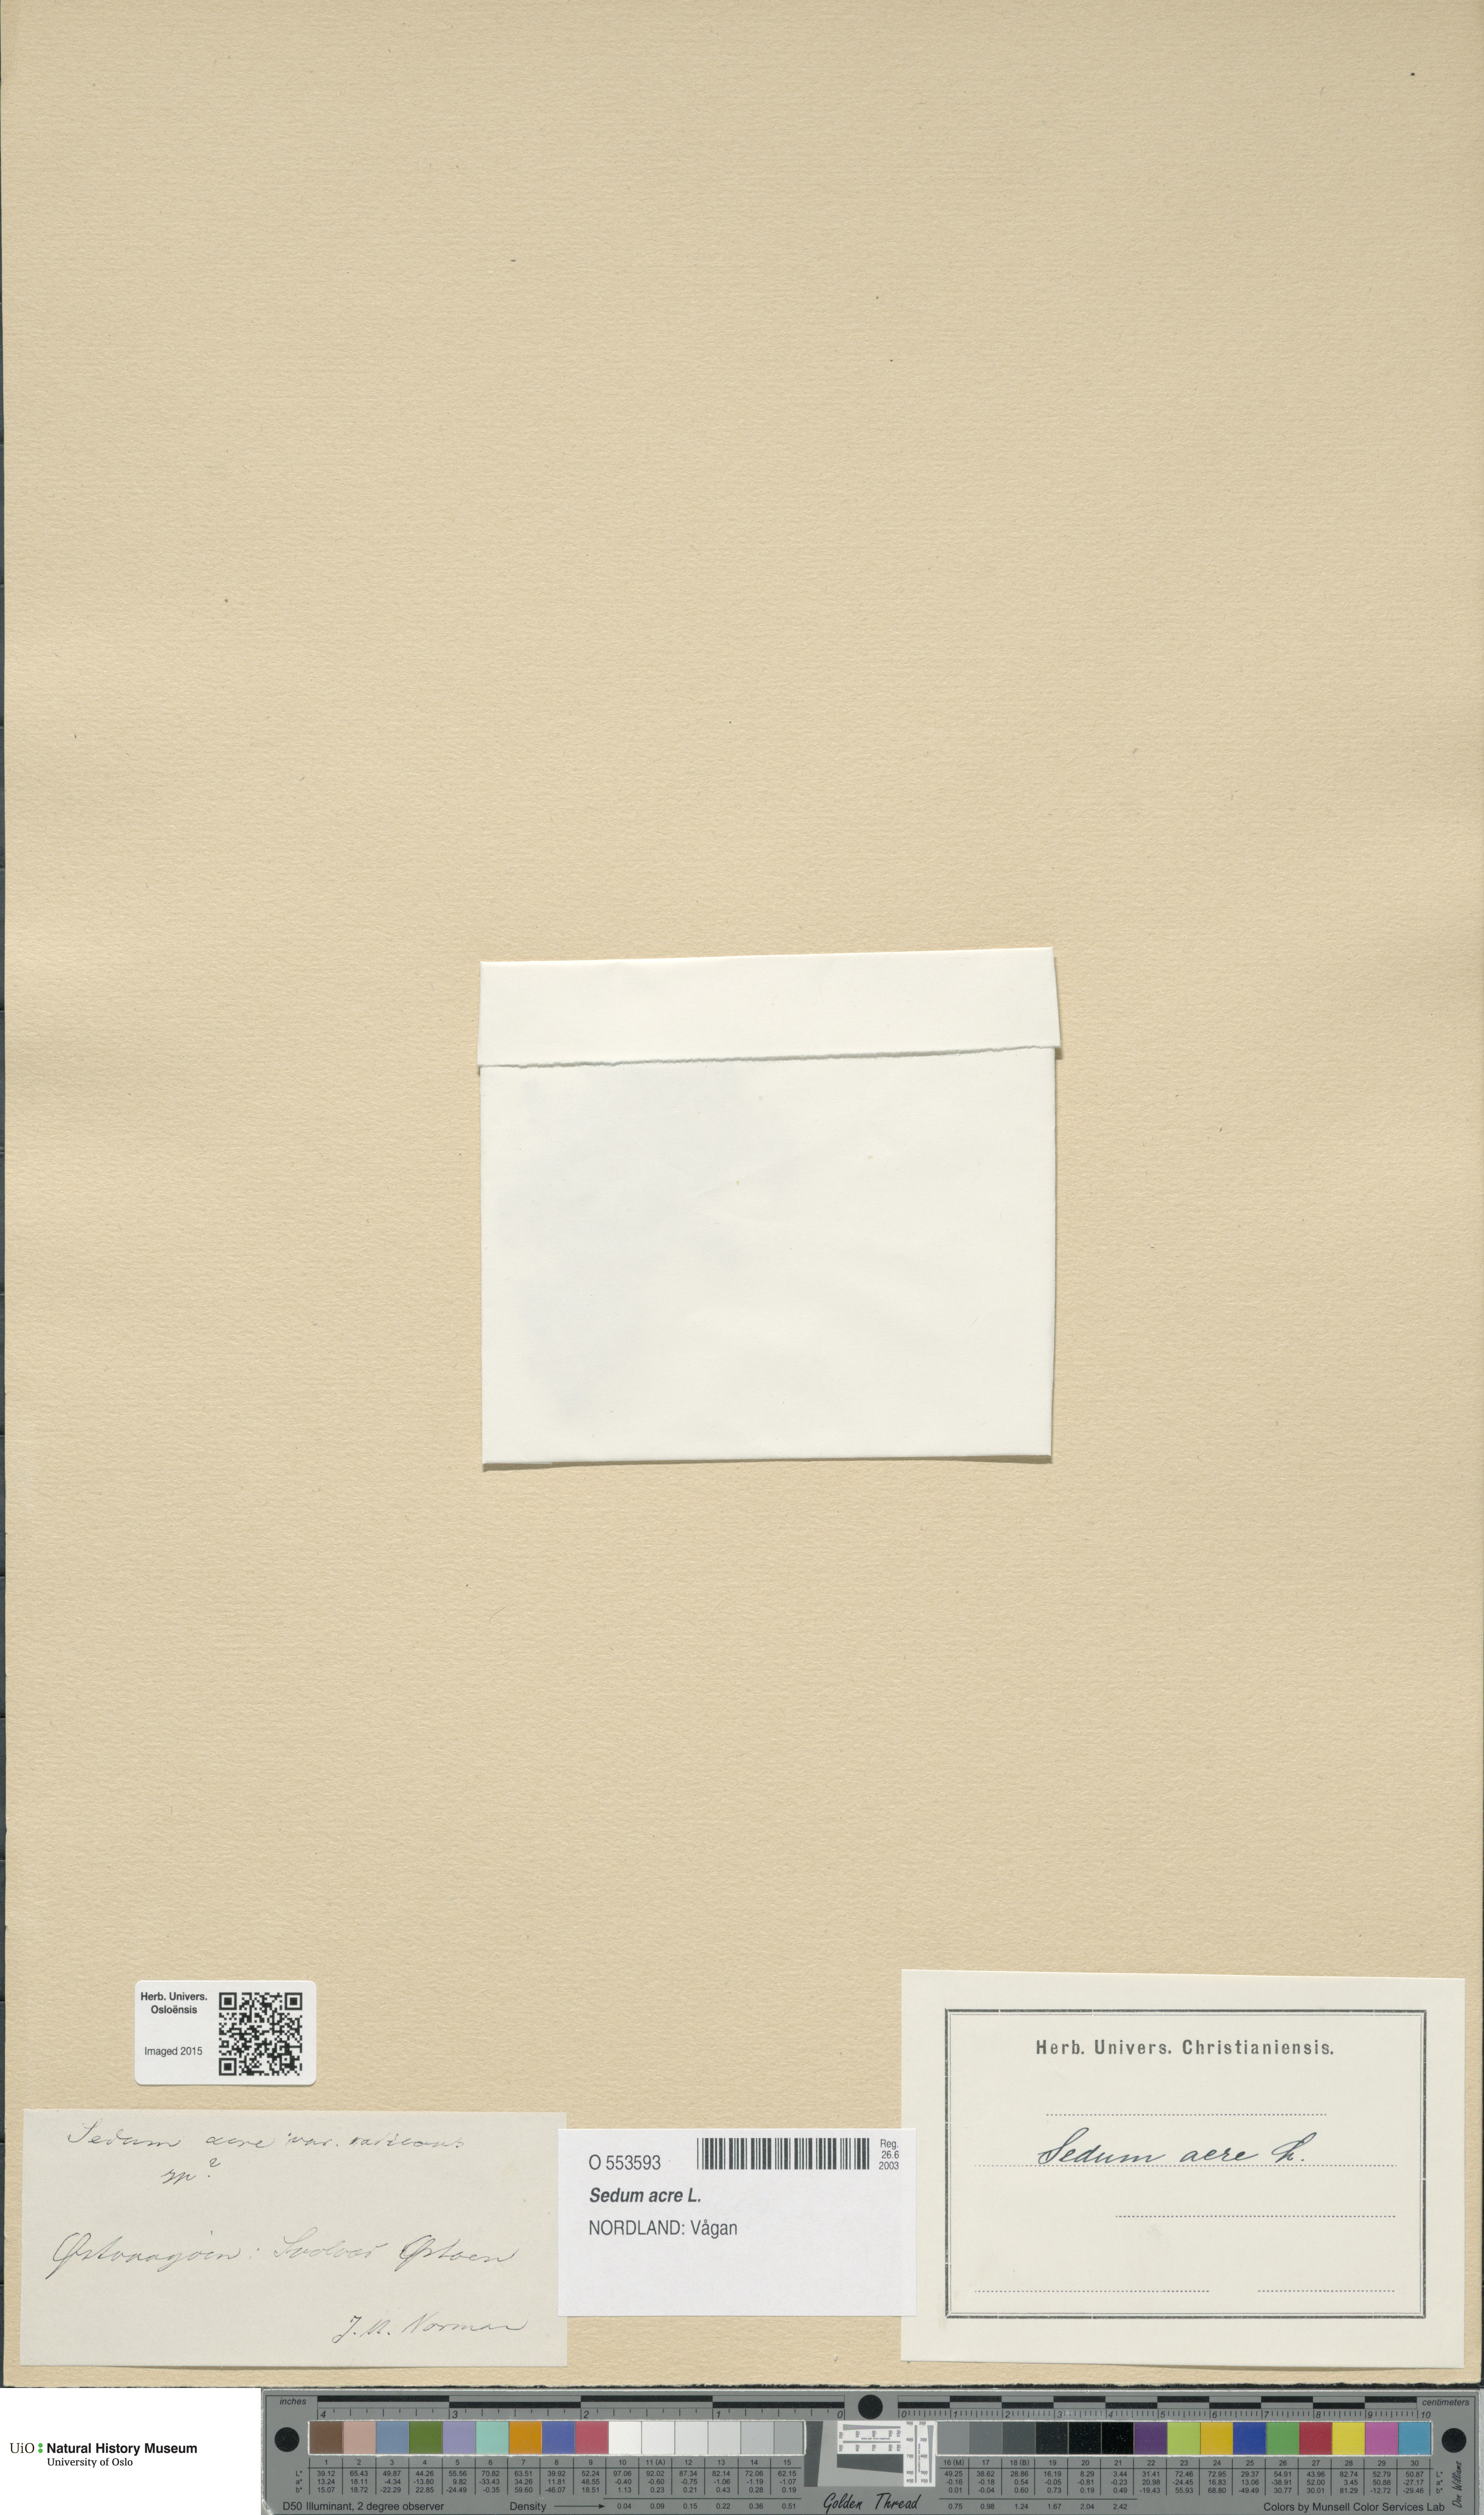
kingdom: Plantae
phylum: Tracheophyta
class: Magnoliopsida
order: Saxifragales
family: Crassulaceae
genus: Sedum
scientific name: Sedum acre
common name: Biting stonecrop
